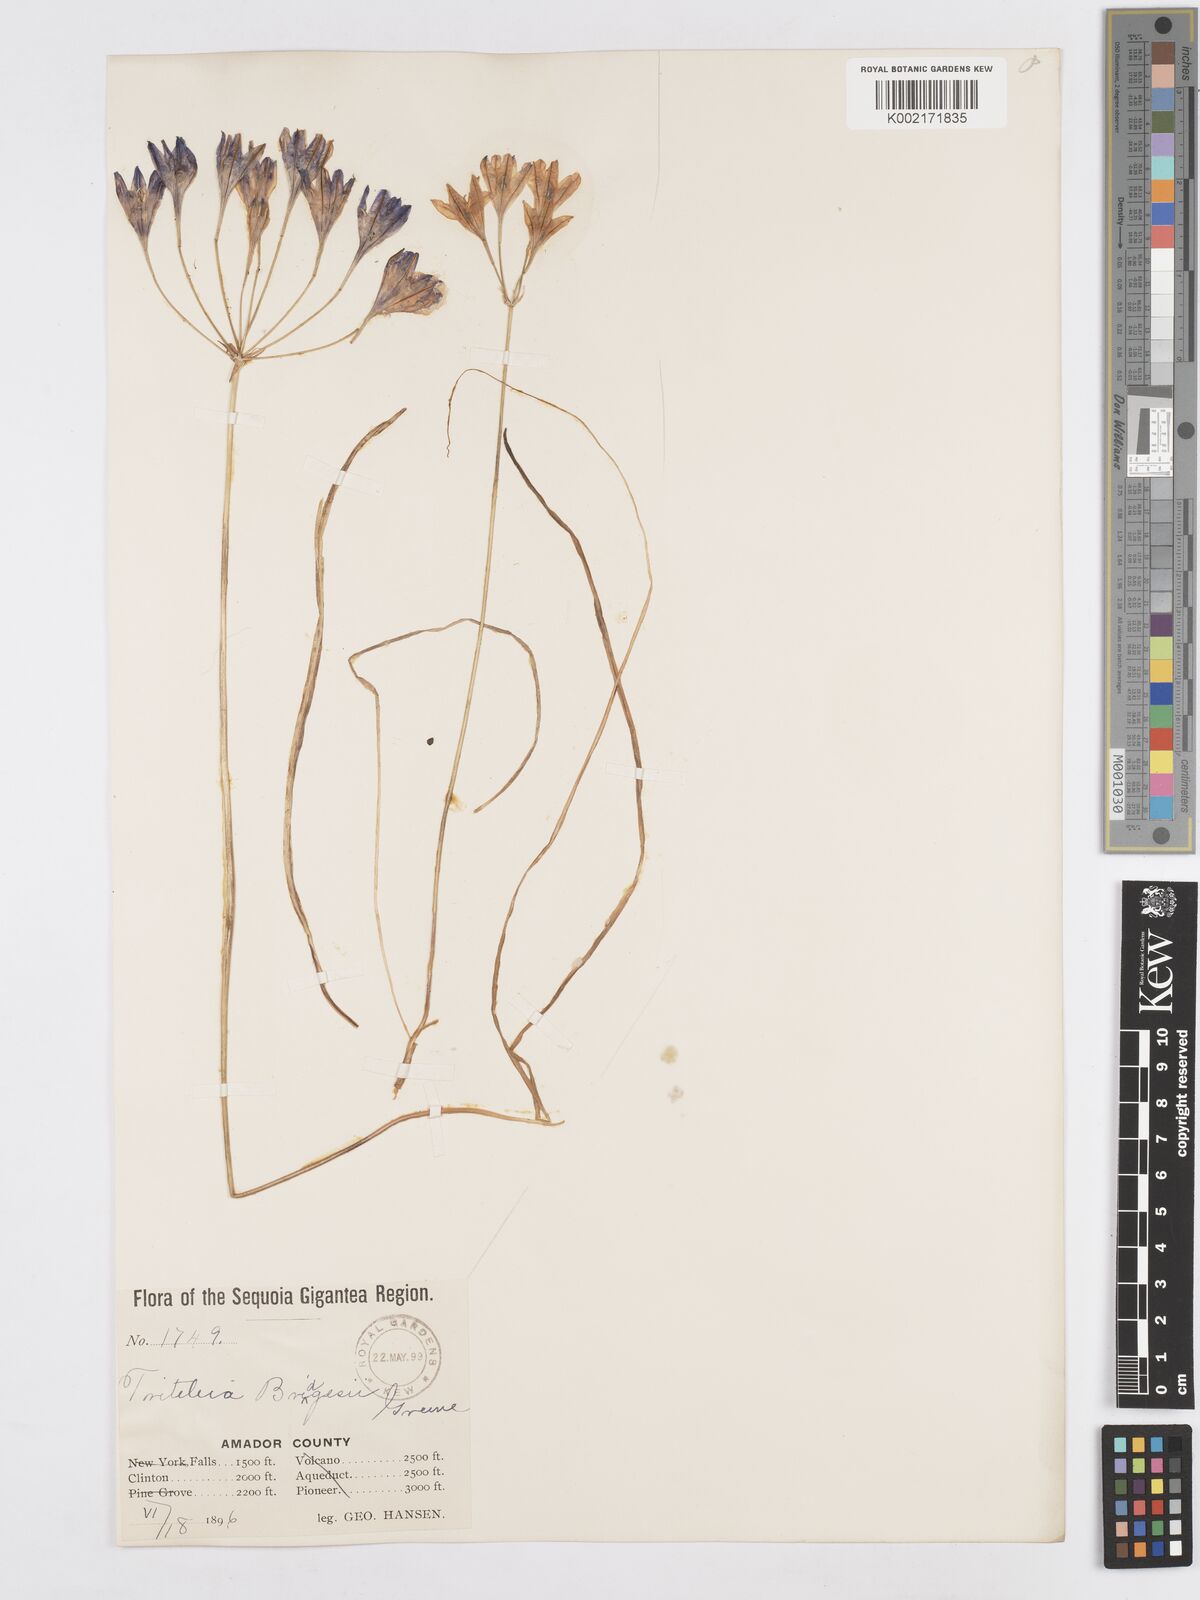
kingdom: Plantae
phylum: Tracheophyta
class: Liliopsida
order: Asparagales
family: Asparagaceae
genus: Triteleia
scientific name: Triteleia bridgesii
